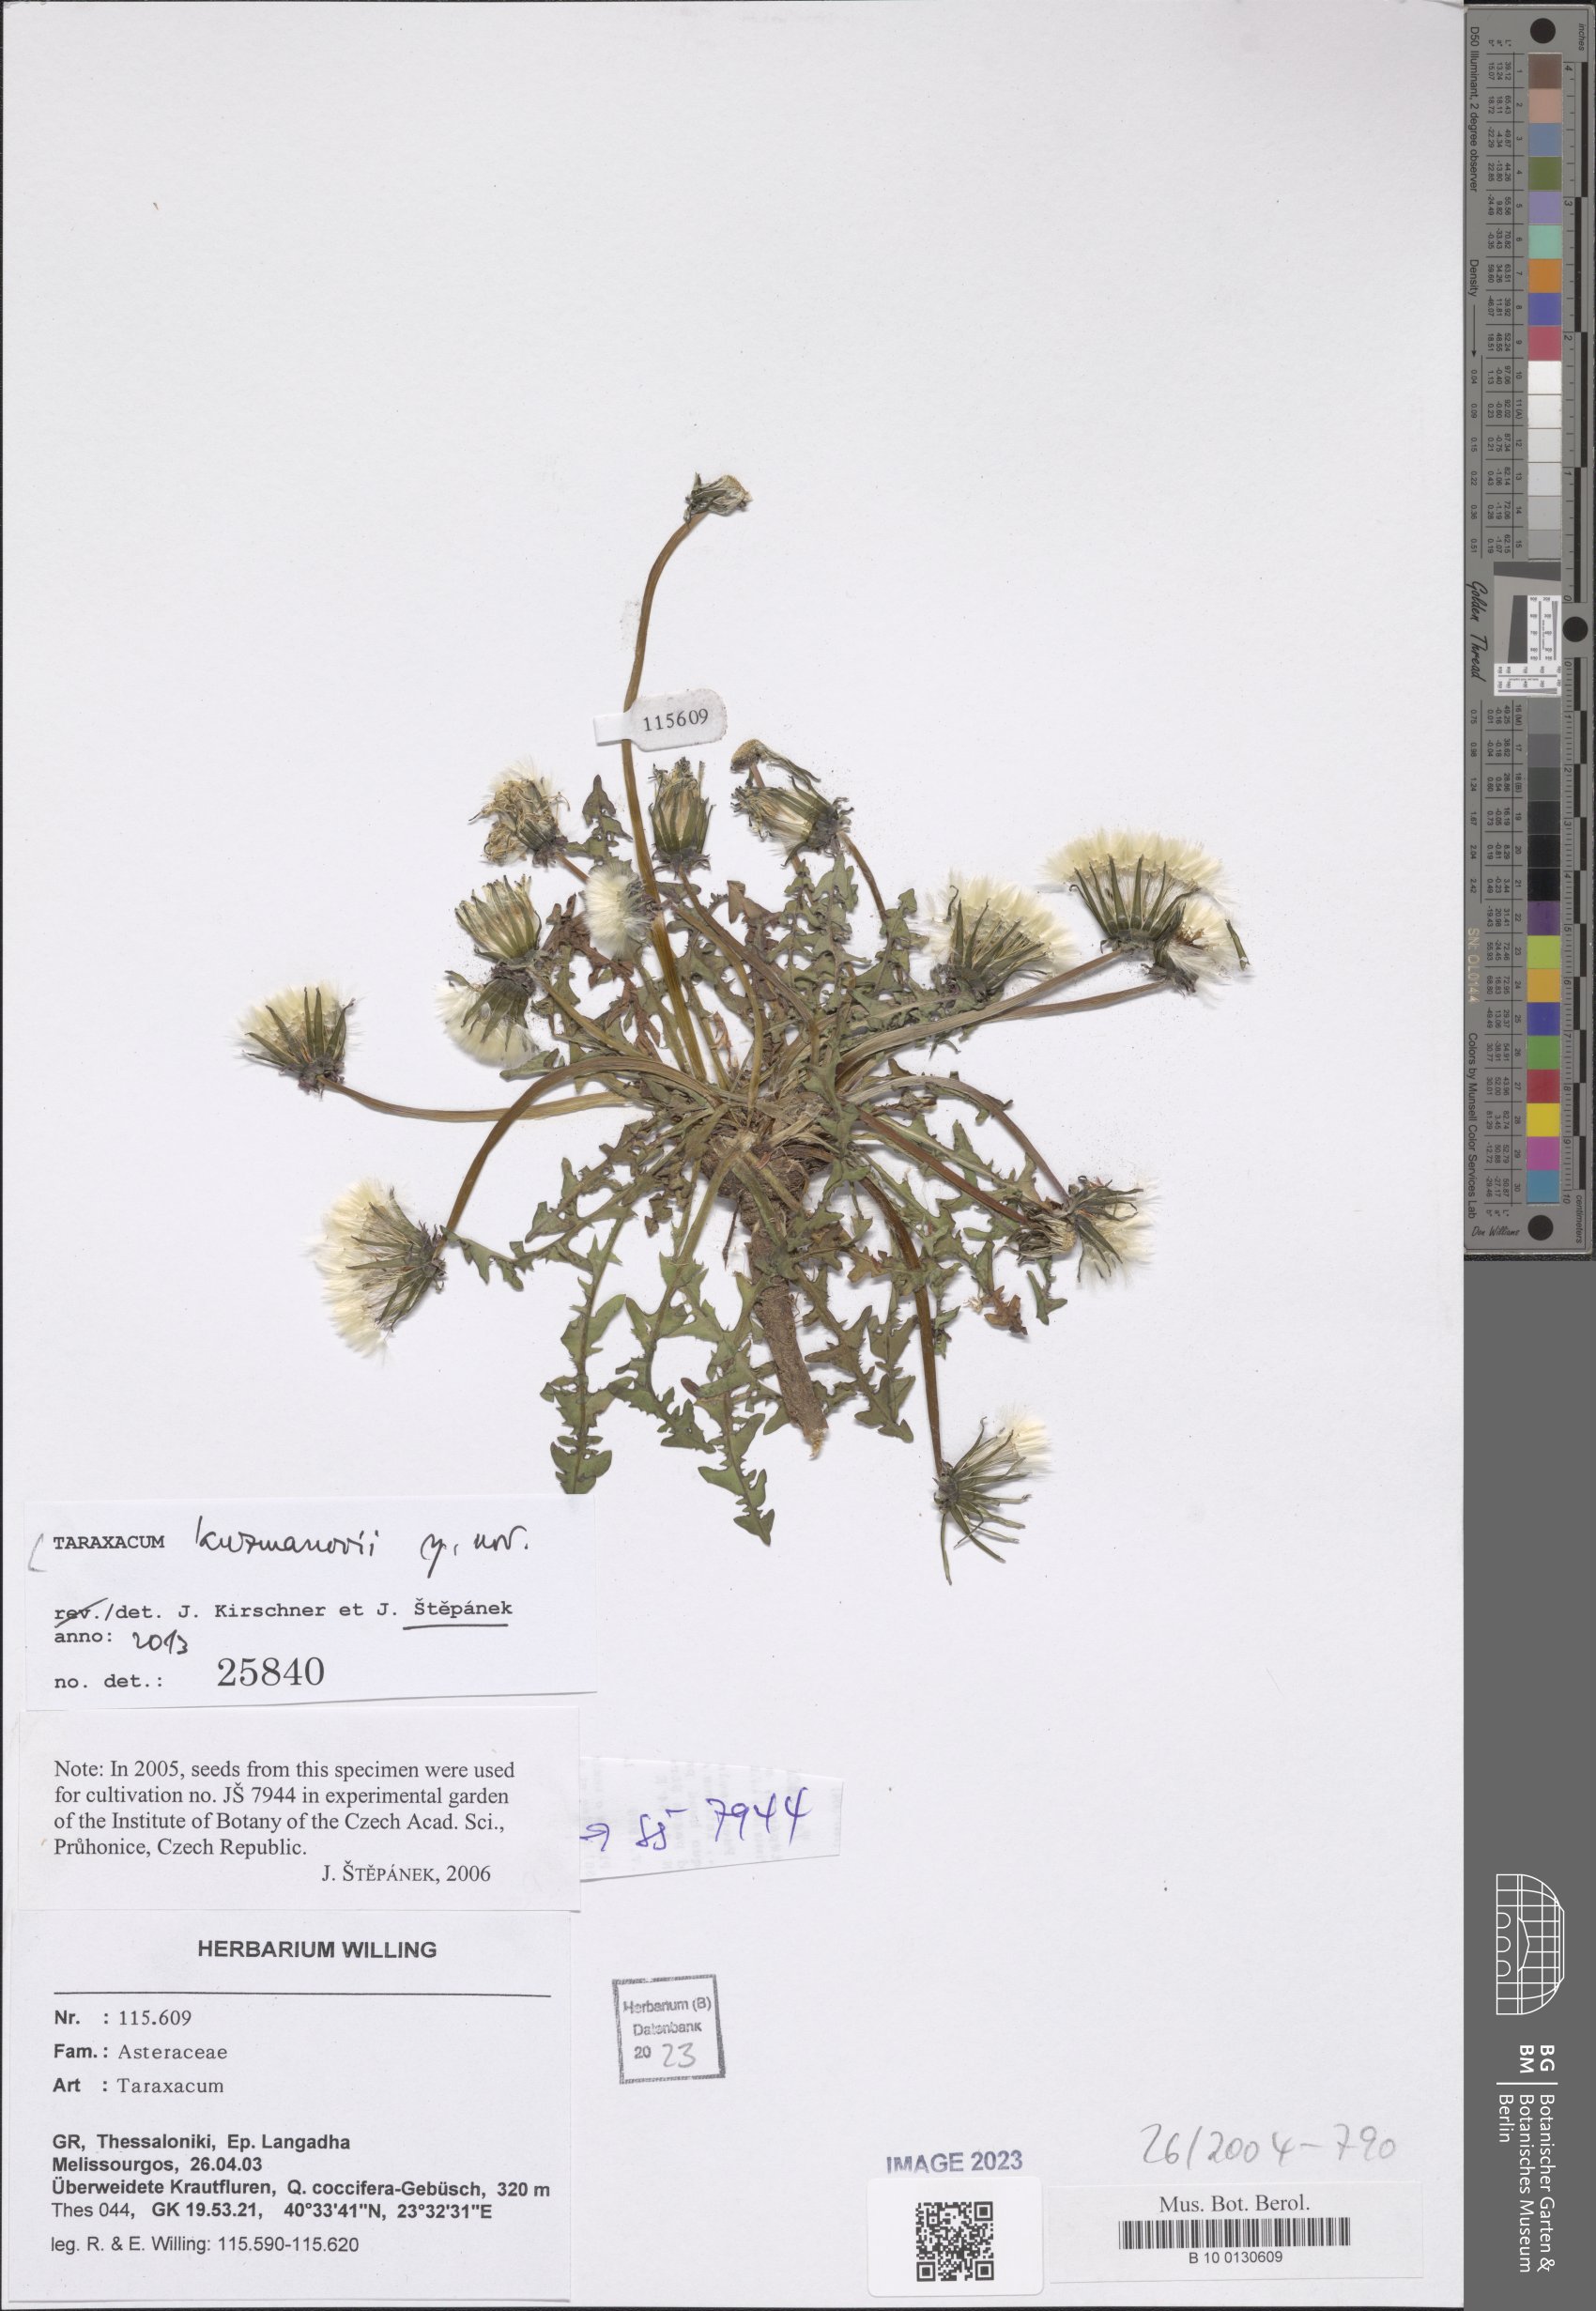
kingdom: Plantae
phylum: Tracheophyta
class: Magnoliopsida
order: Asterales
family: Asteraceae
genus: Taraxacum
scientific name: Taraxacum
